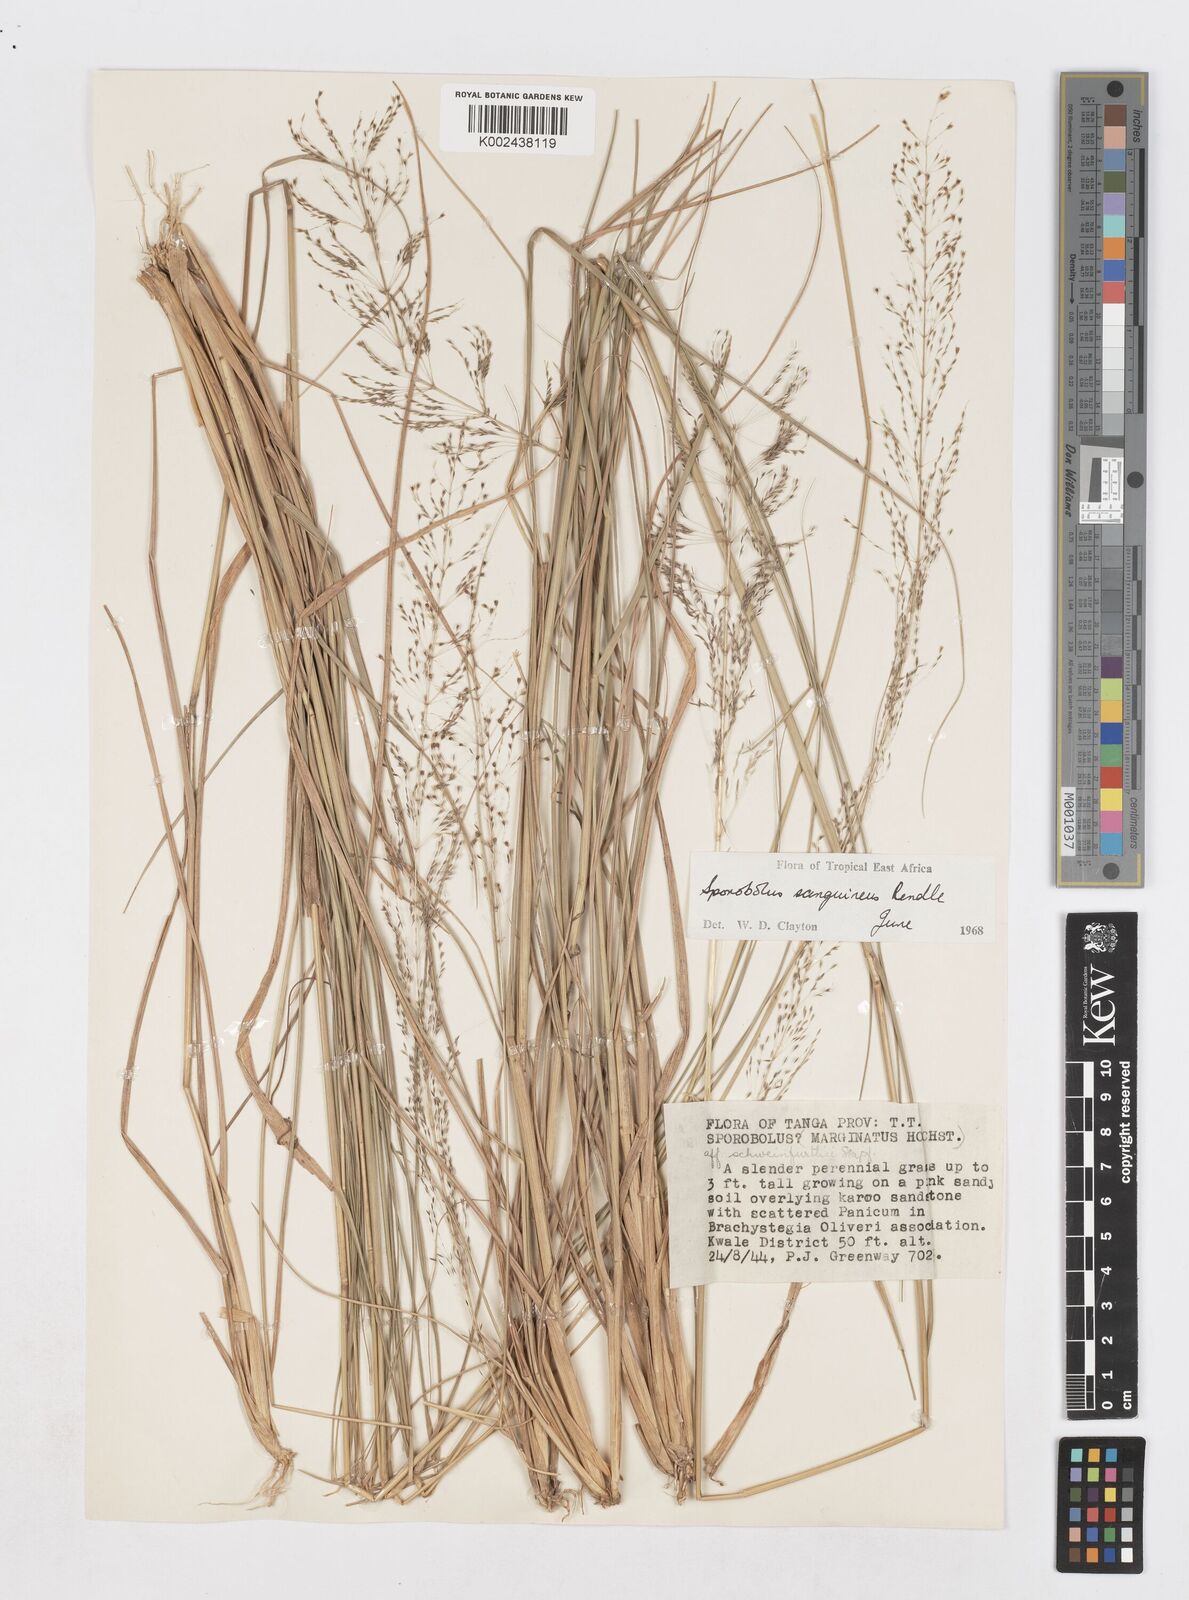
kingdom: Plantae
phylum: Tracheophyta
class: Liliopsida
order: Poales
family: Poaceae
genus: Sporobolus
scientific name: Sporobolus sanguineus
